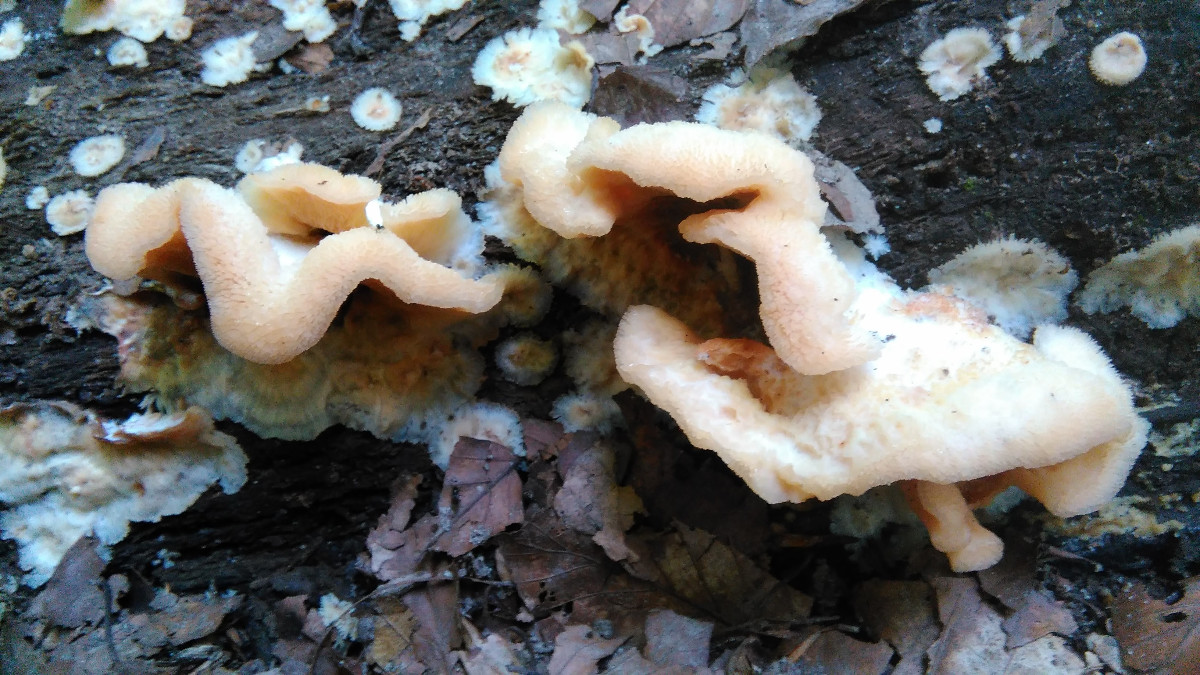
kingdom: Fungi
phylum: Basidiomycota
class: Agaricomycetes
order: Polyporales
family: Meruliaceae
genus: Phlebia
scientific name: Phlebia tremellosa
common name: bævrende åresvamp
